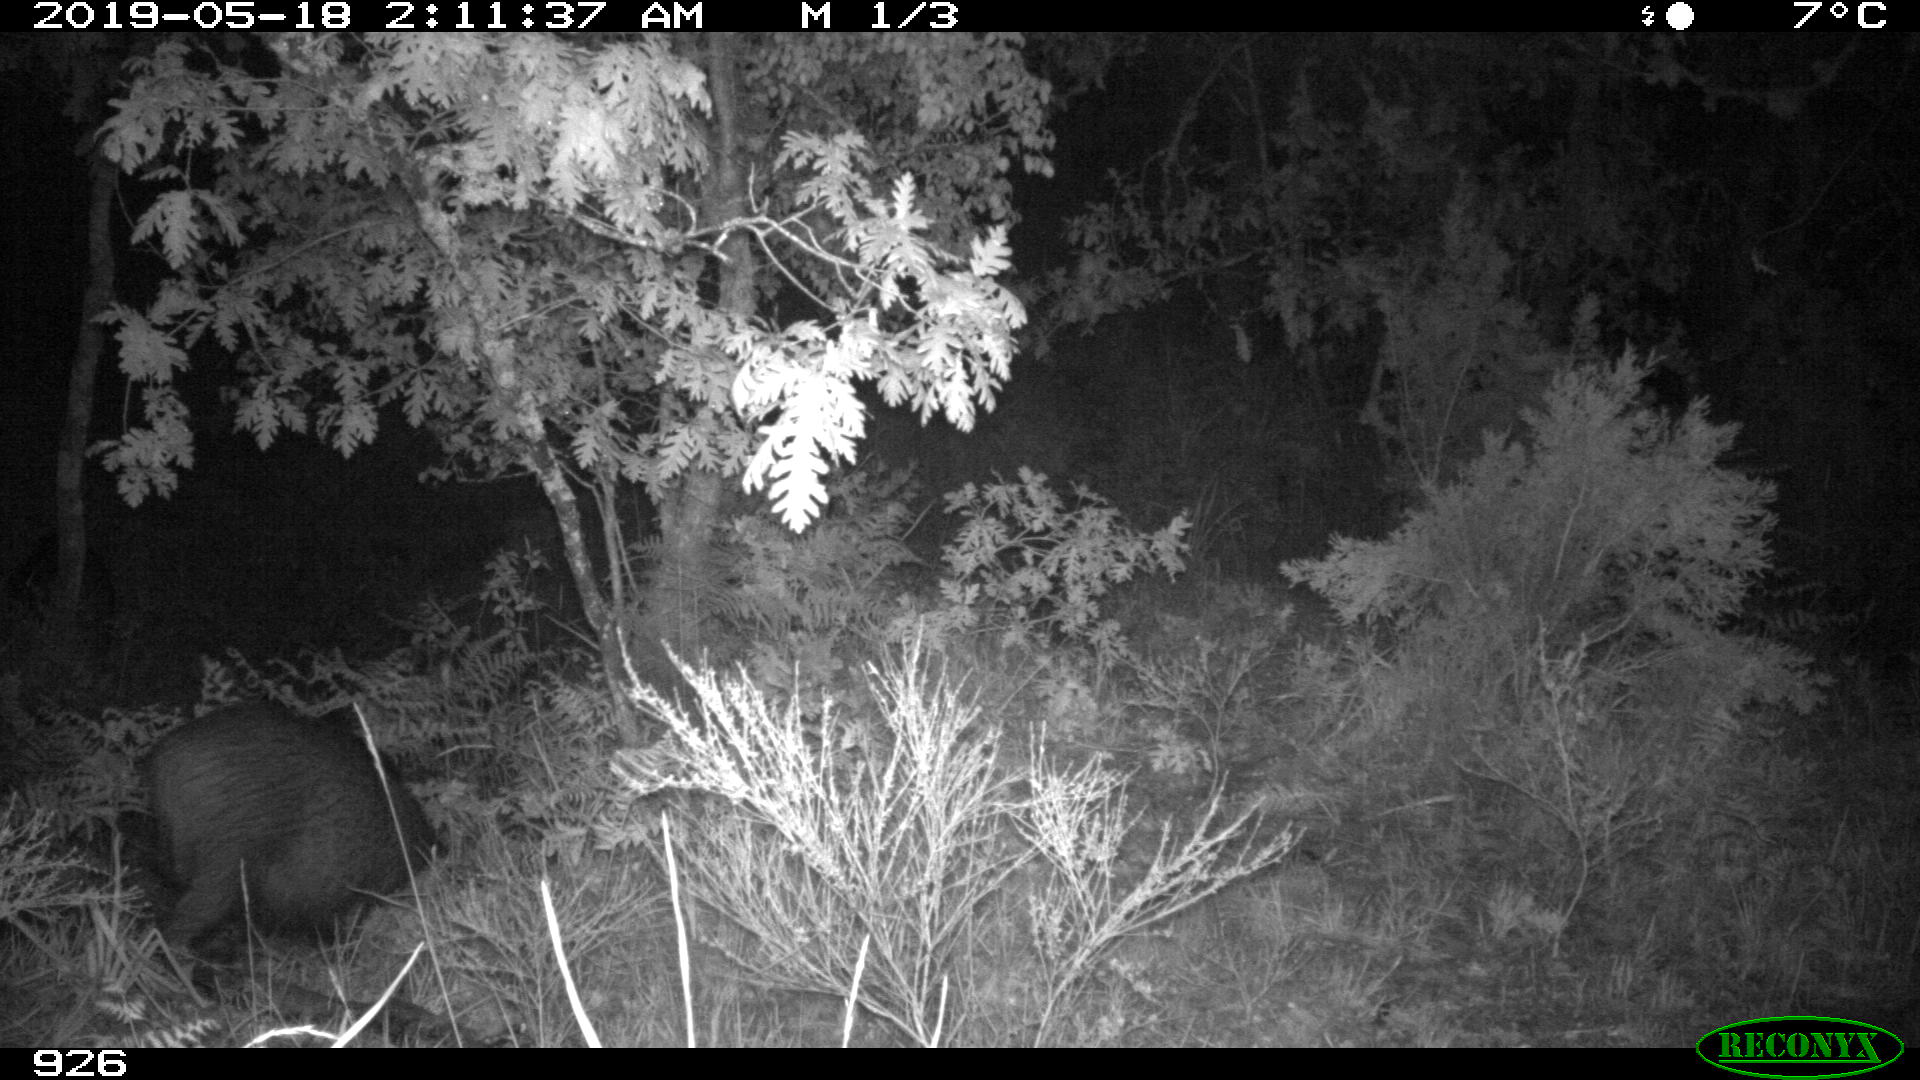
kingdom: Animalia
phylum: Chordata
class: Mammalia
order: Artiodactyla
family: Suidae
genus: Sus
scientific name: Sus scrofa
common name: Wild boar
